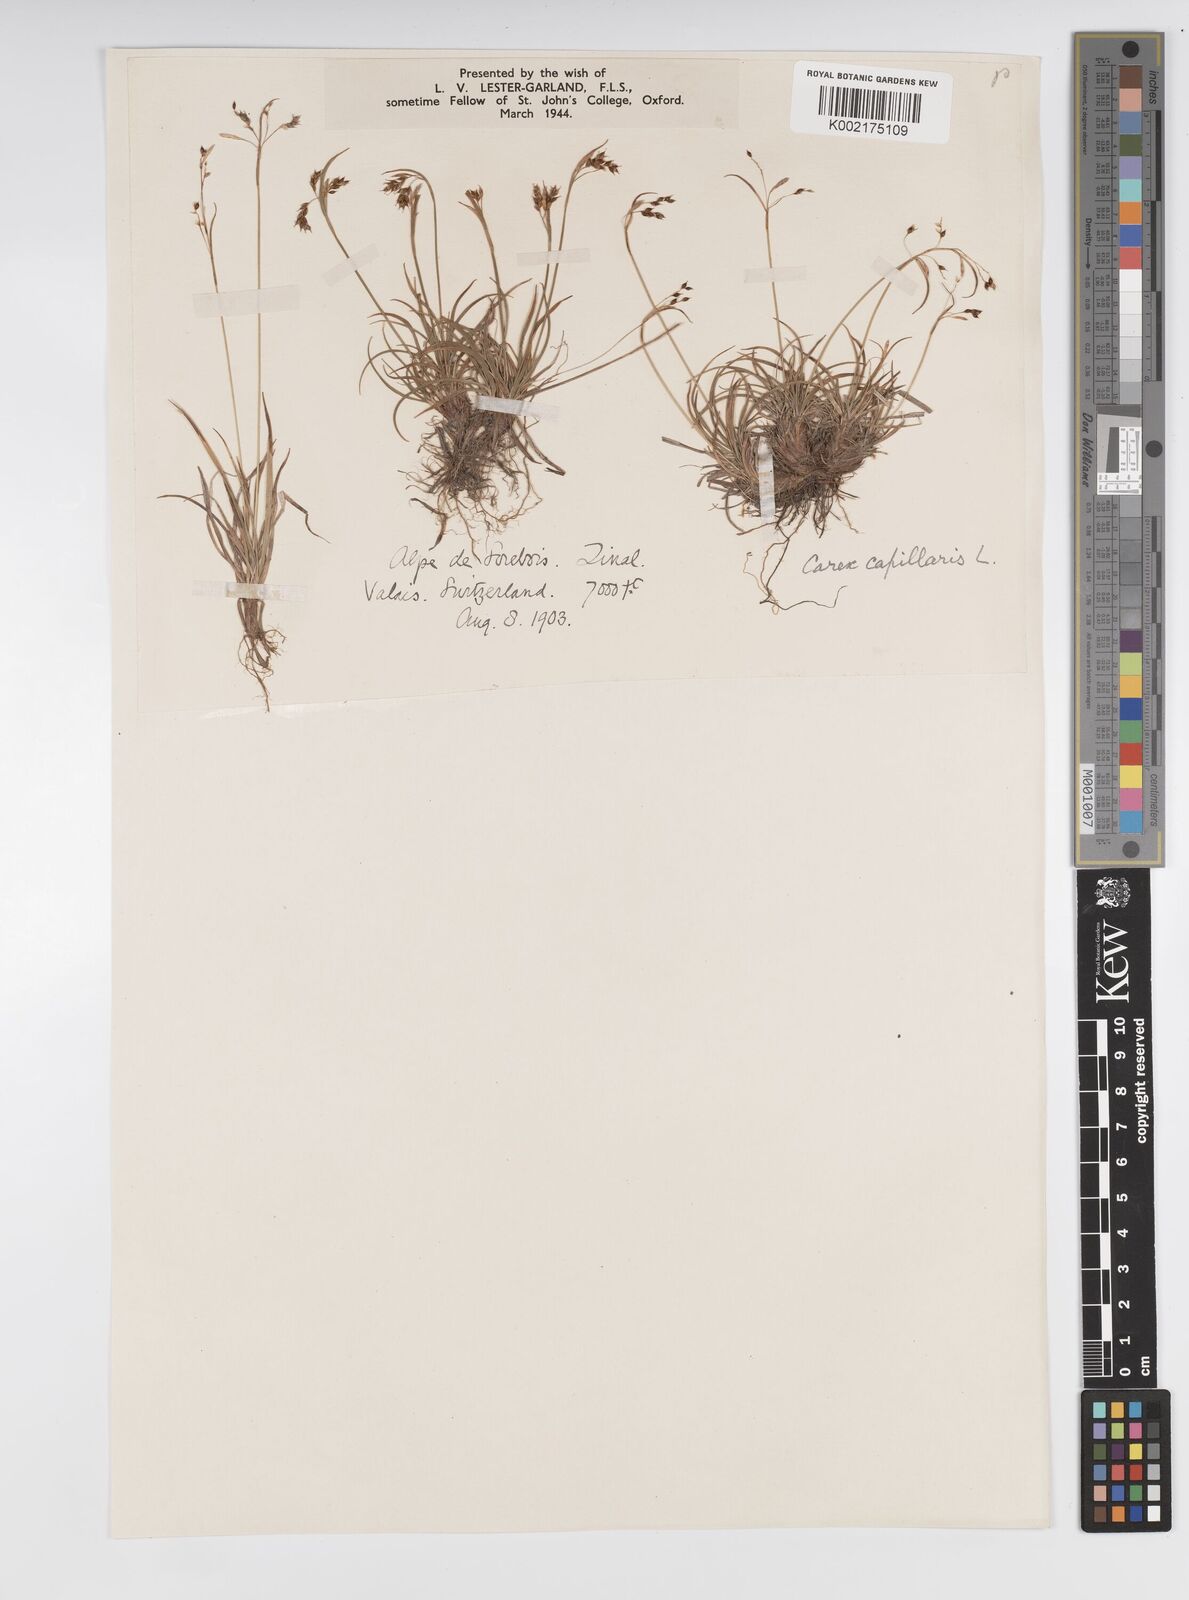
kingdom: Plantae
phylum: Tracheophyta
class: Liliopsida
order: Poales
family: Cyperaceae
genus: Carex
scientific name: Carex capillaris
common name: Hair sedge
